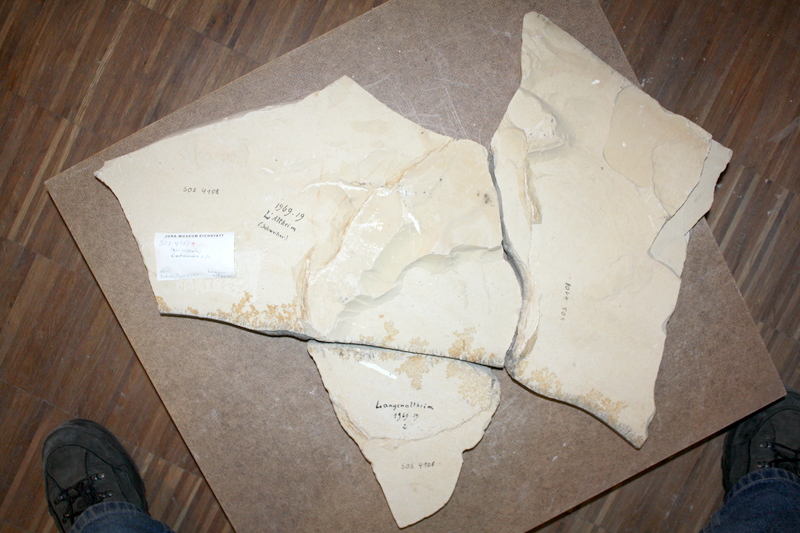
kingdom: Animalia
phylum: Chordata
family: Ankylophoridae
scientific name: Ankylophoridae
